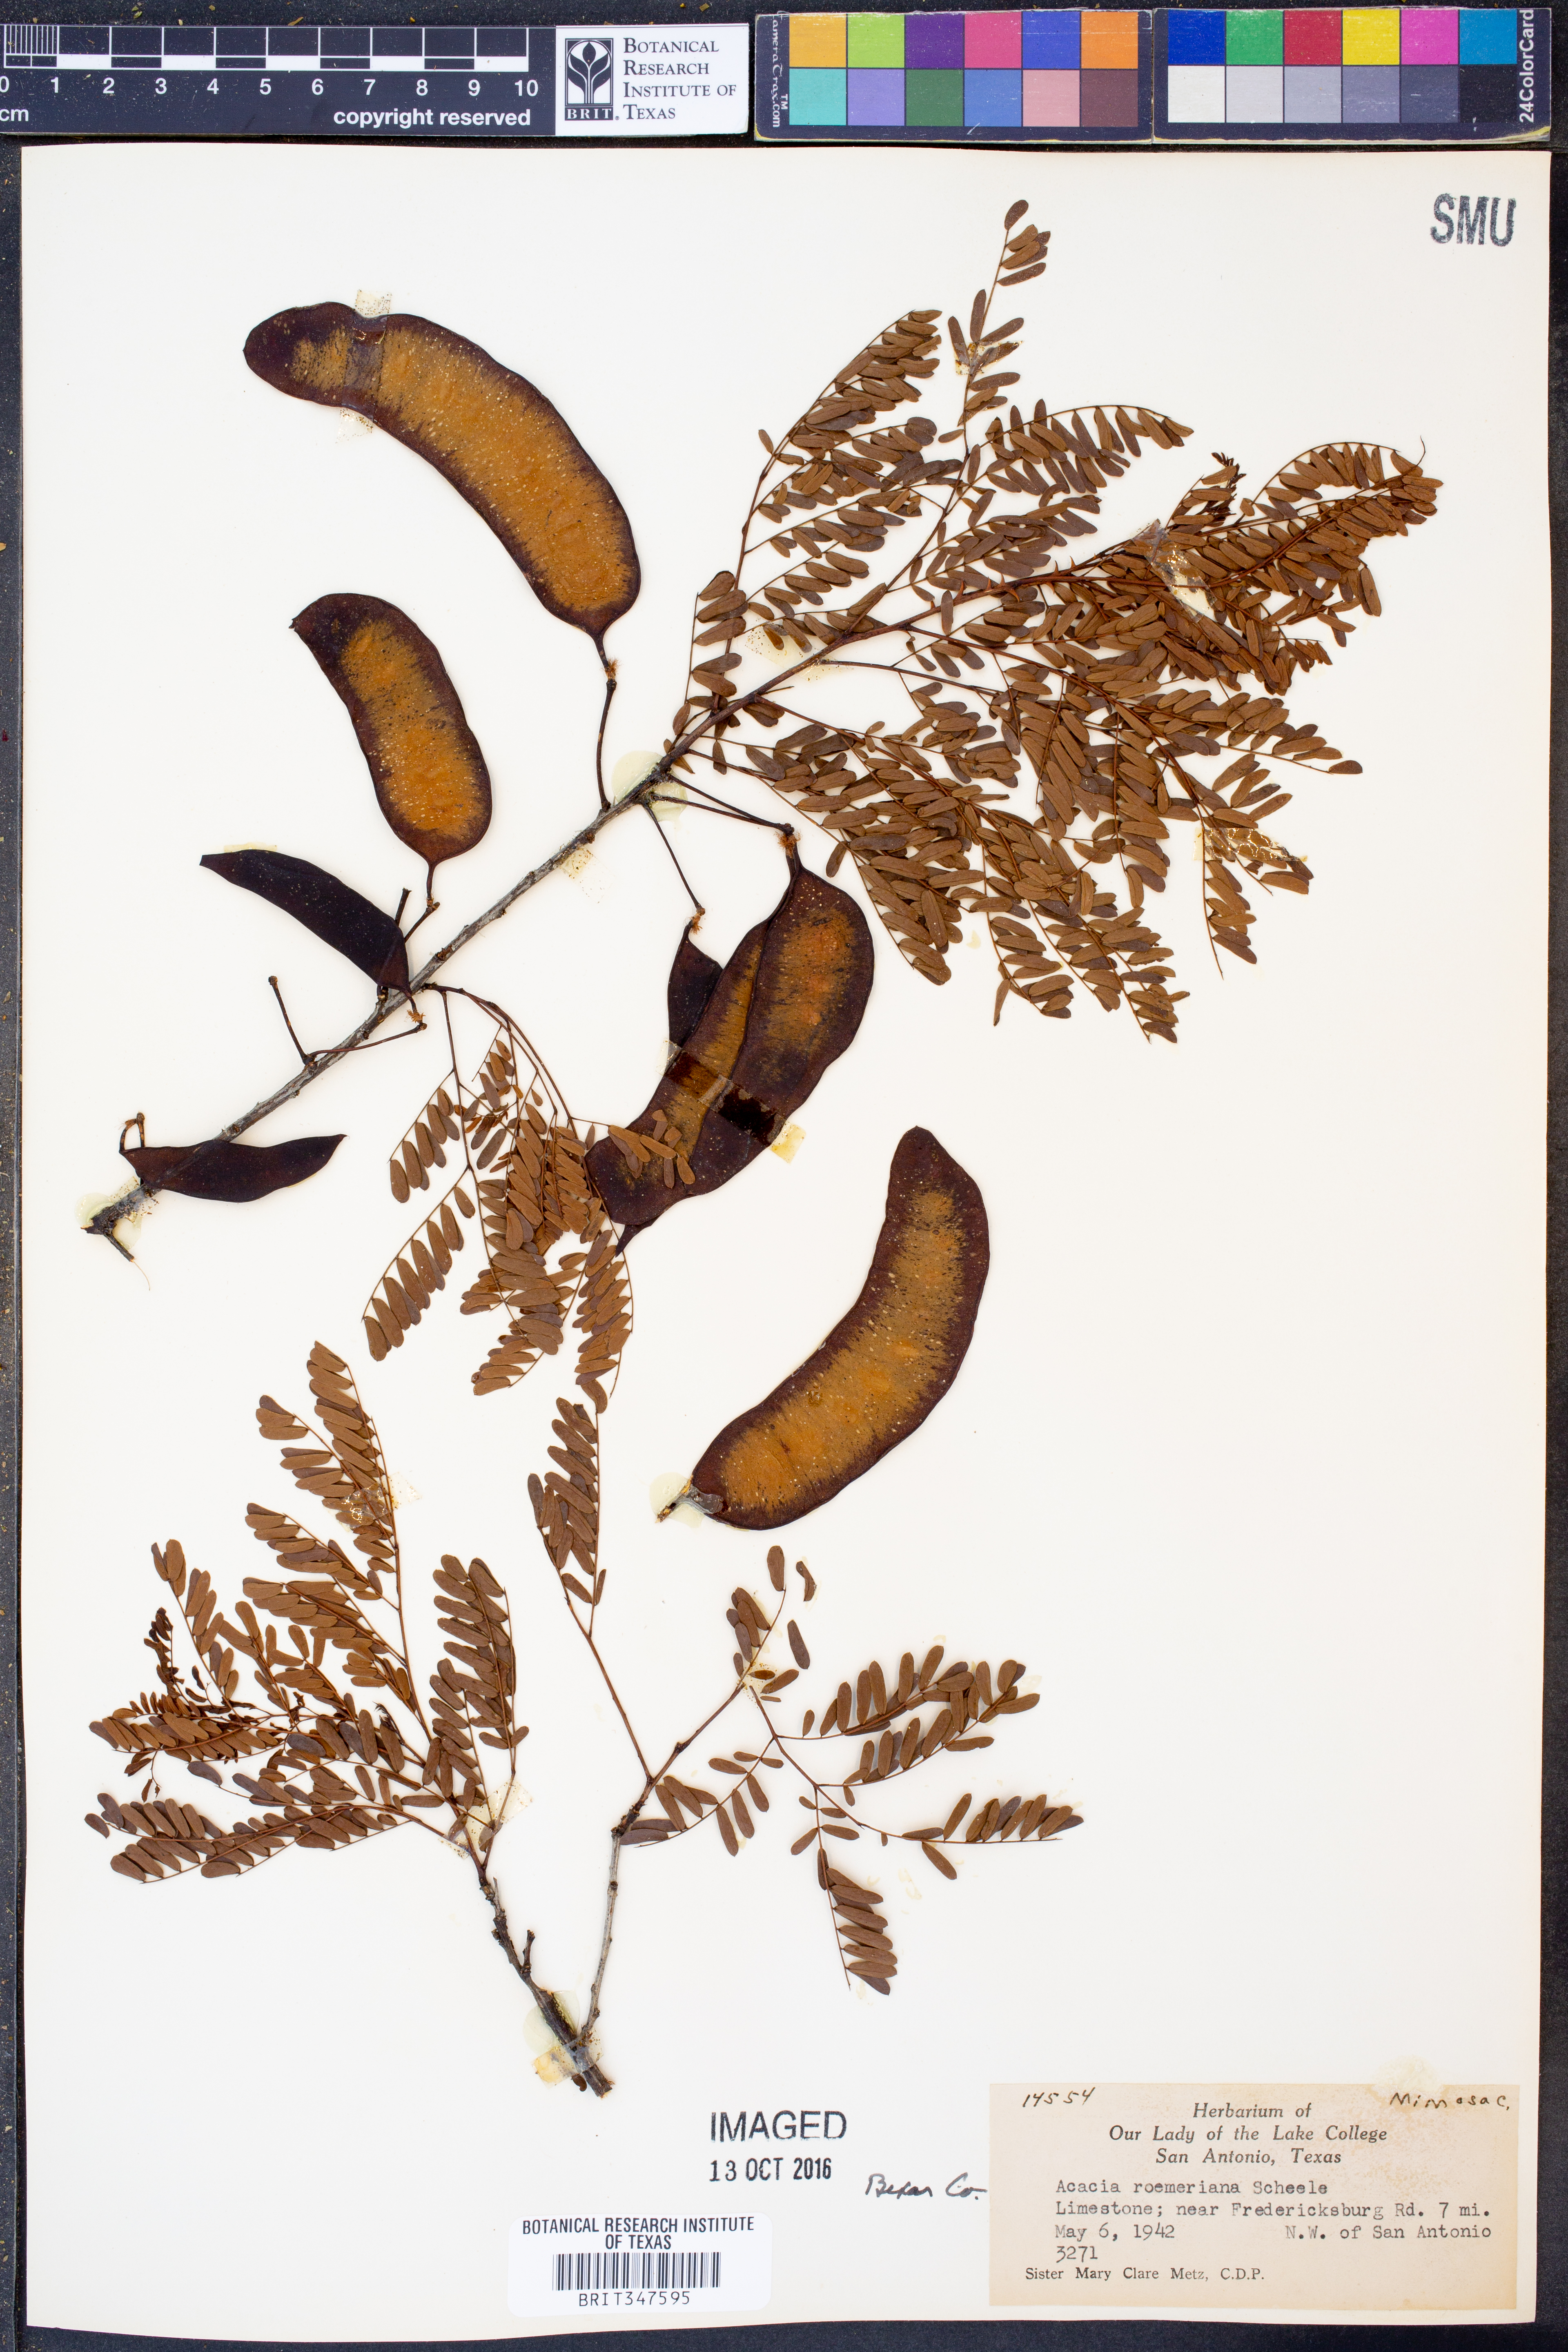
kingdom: Plantae
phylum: Tracheophyta
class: Magnoliopsida
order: Fabales
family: Fabaceae
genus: Senegalia
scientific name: Senegalia roemeriana
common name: Roemer's acacia
